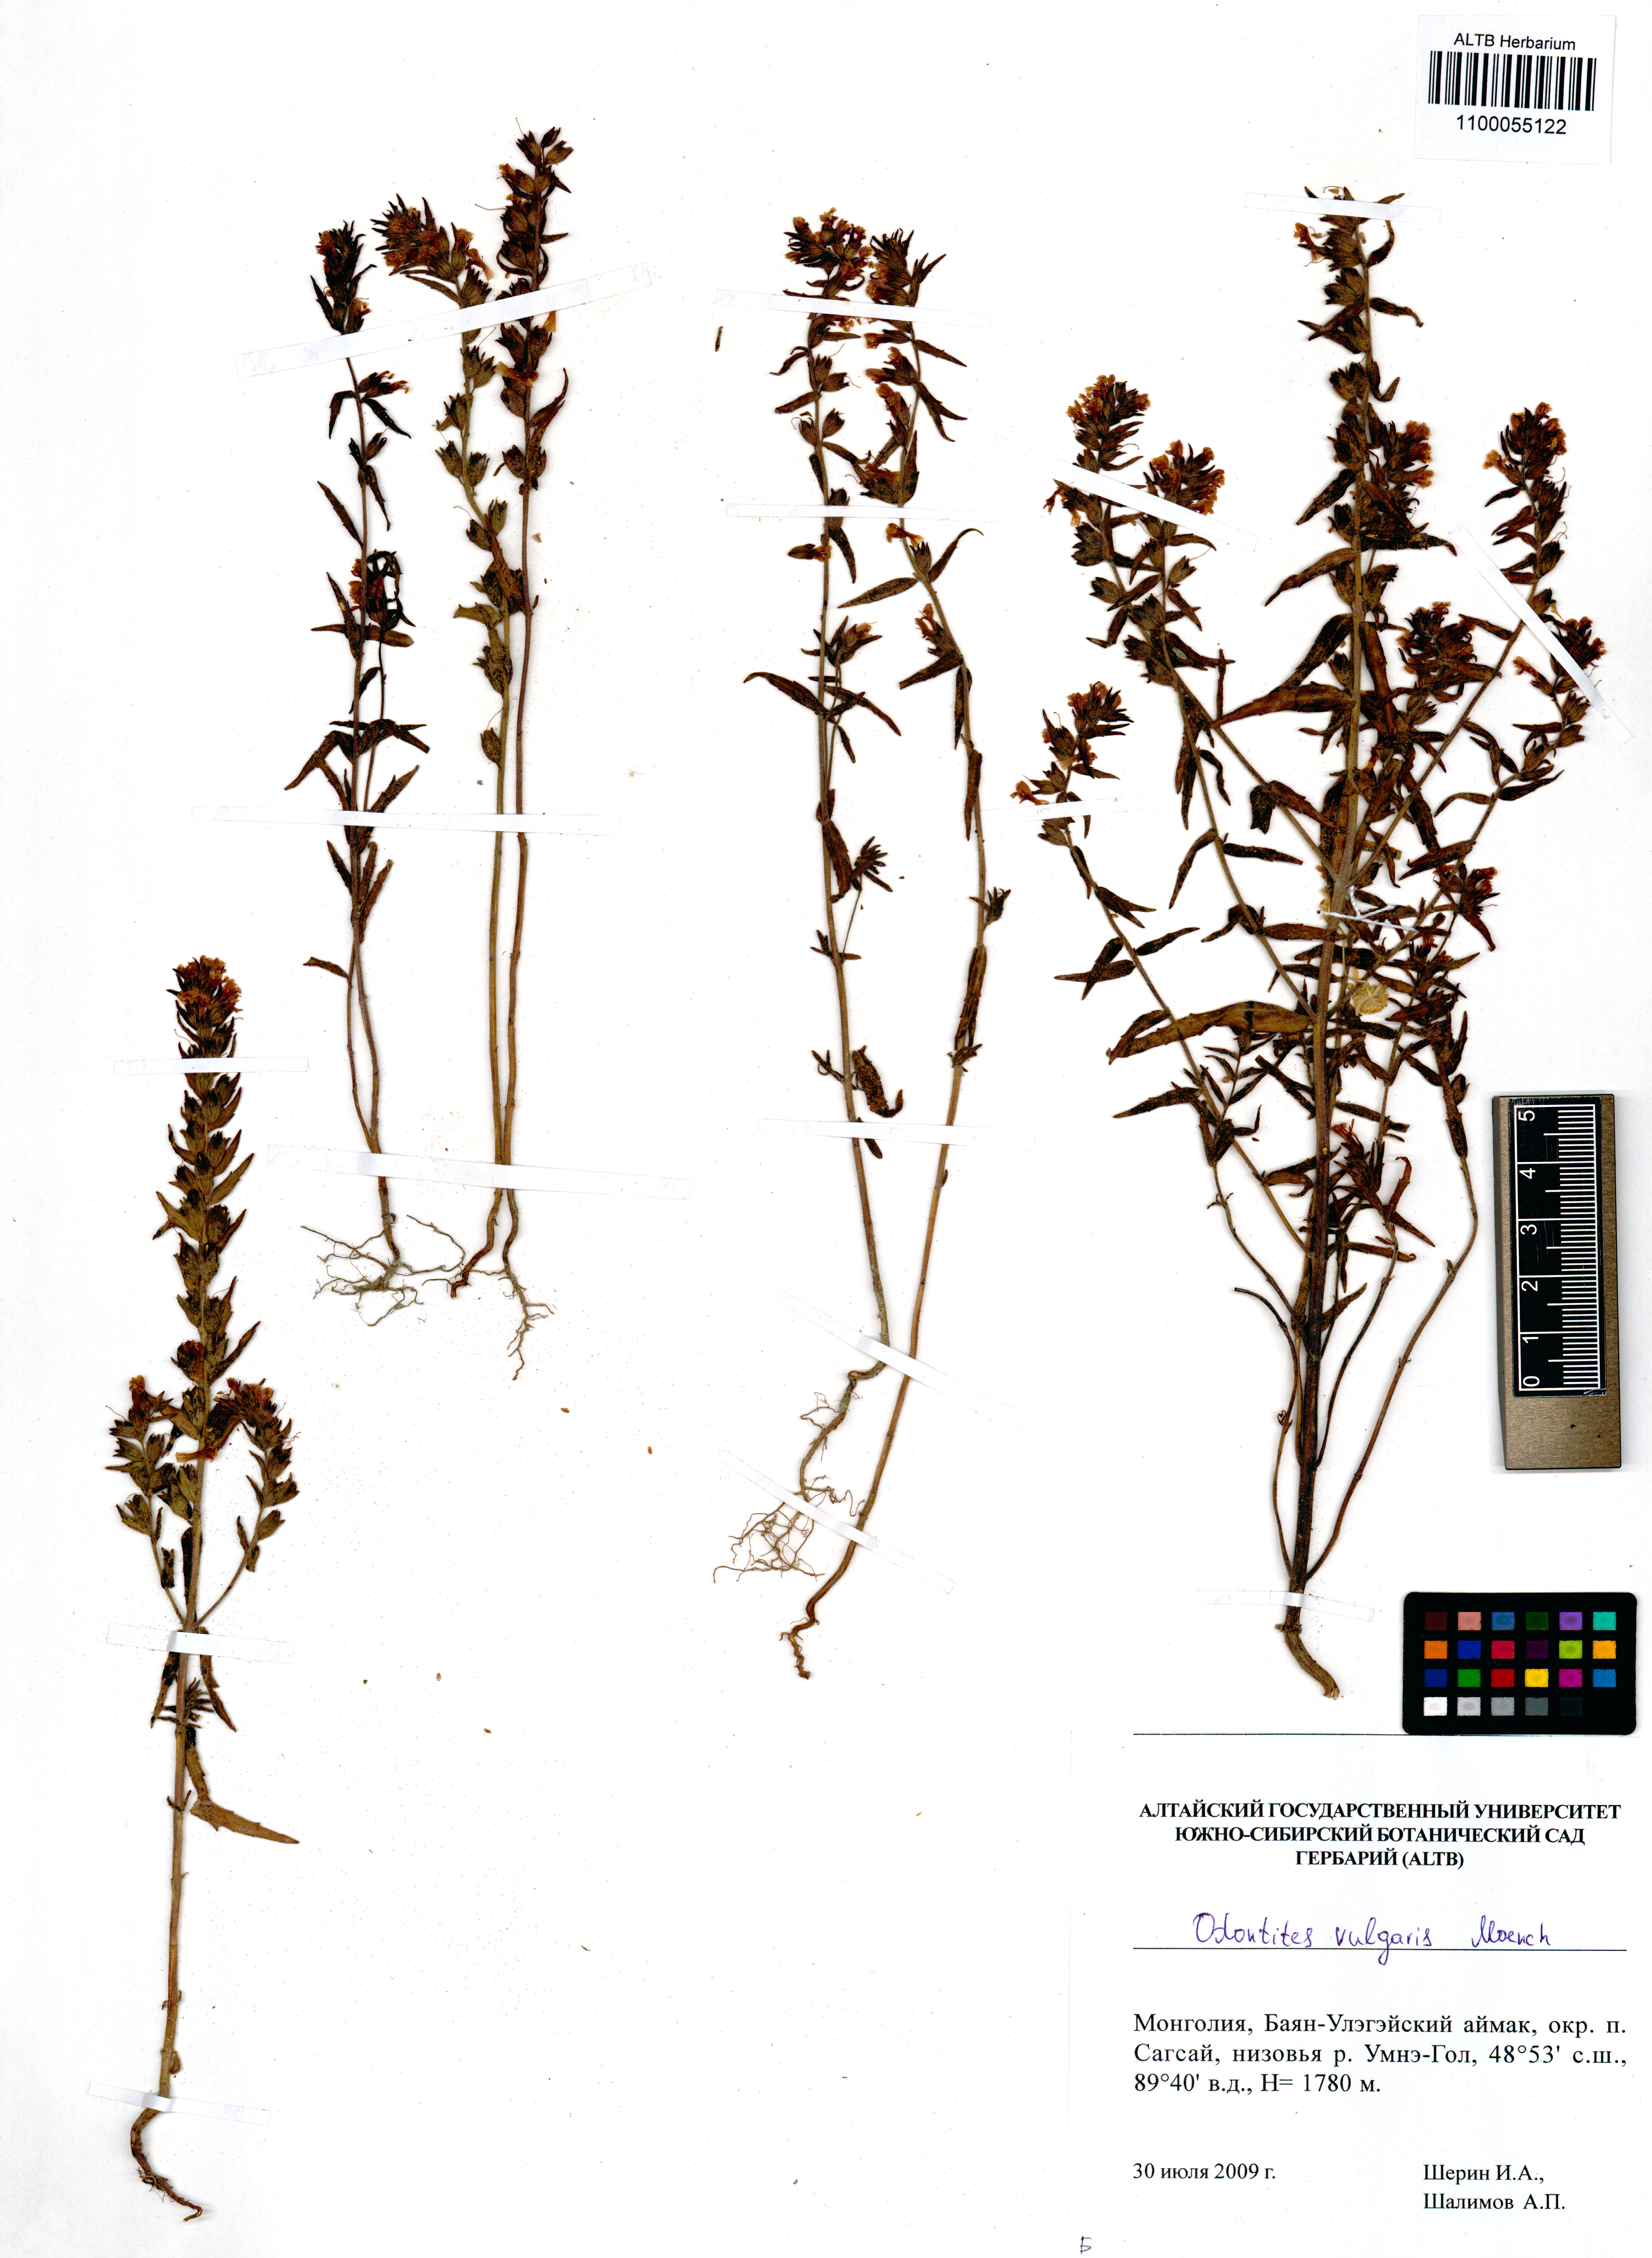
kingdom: Plantae
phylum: Tracheophyta
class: Magnoliopsida
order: Lamiales
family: Orobanchaceae
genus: Odontites
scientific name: Odontites vulgaris
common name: Broomrape
